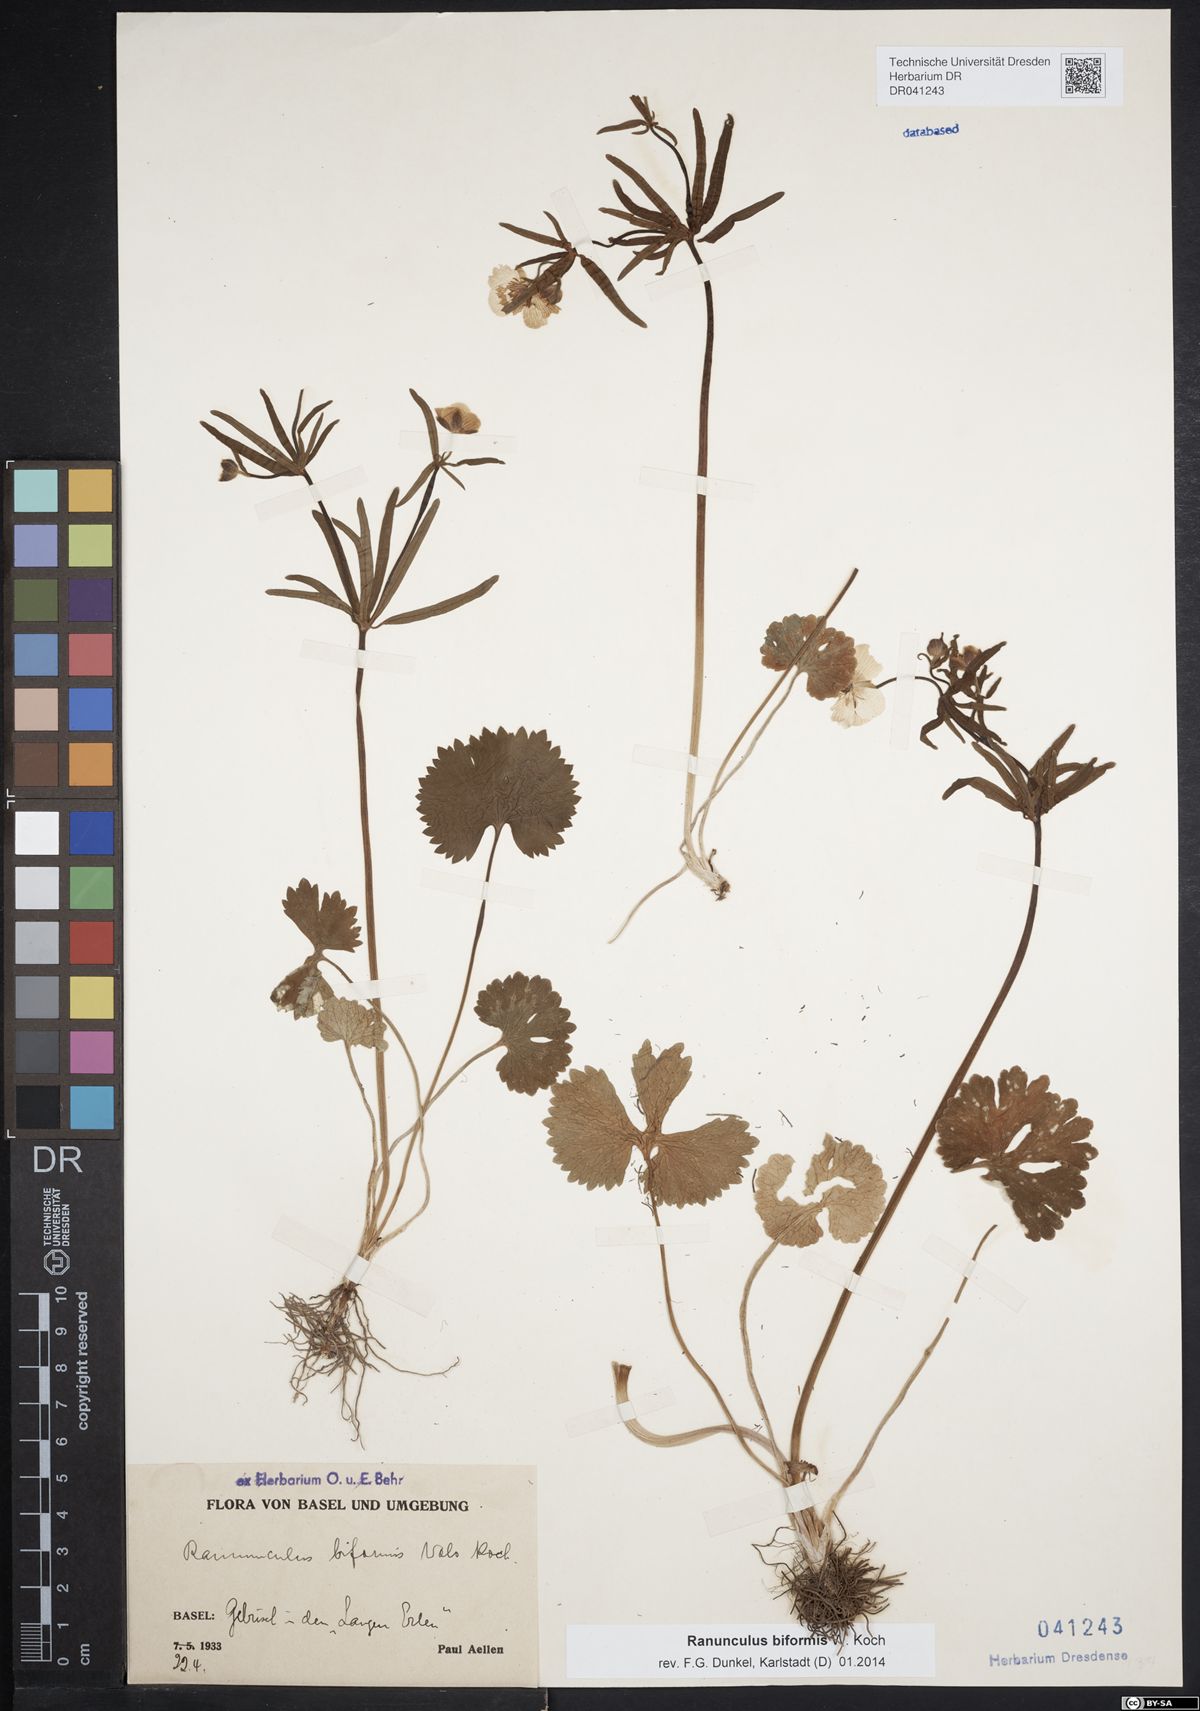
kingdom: Plantae
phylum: Tracheophyta
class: Magnoliopsida
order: Ranunculales
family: Ranunculaceae
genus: Ranunculus
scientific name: Ranunculus biformis
